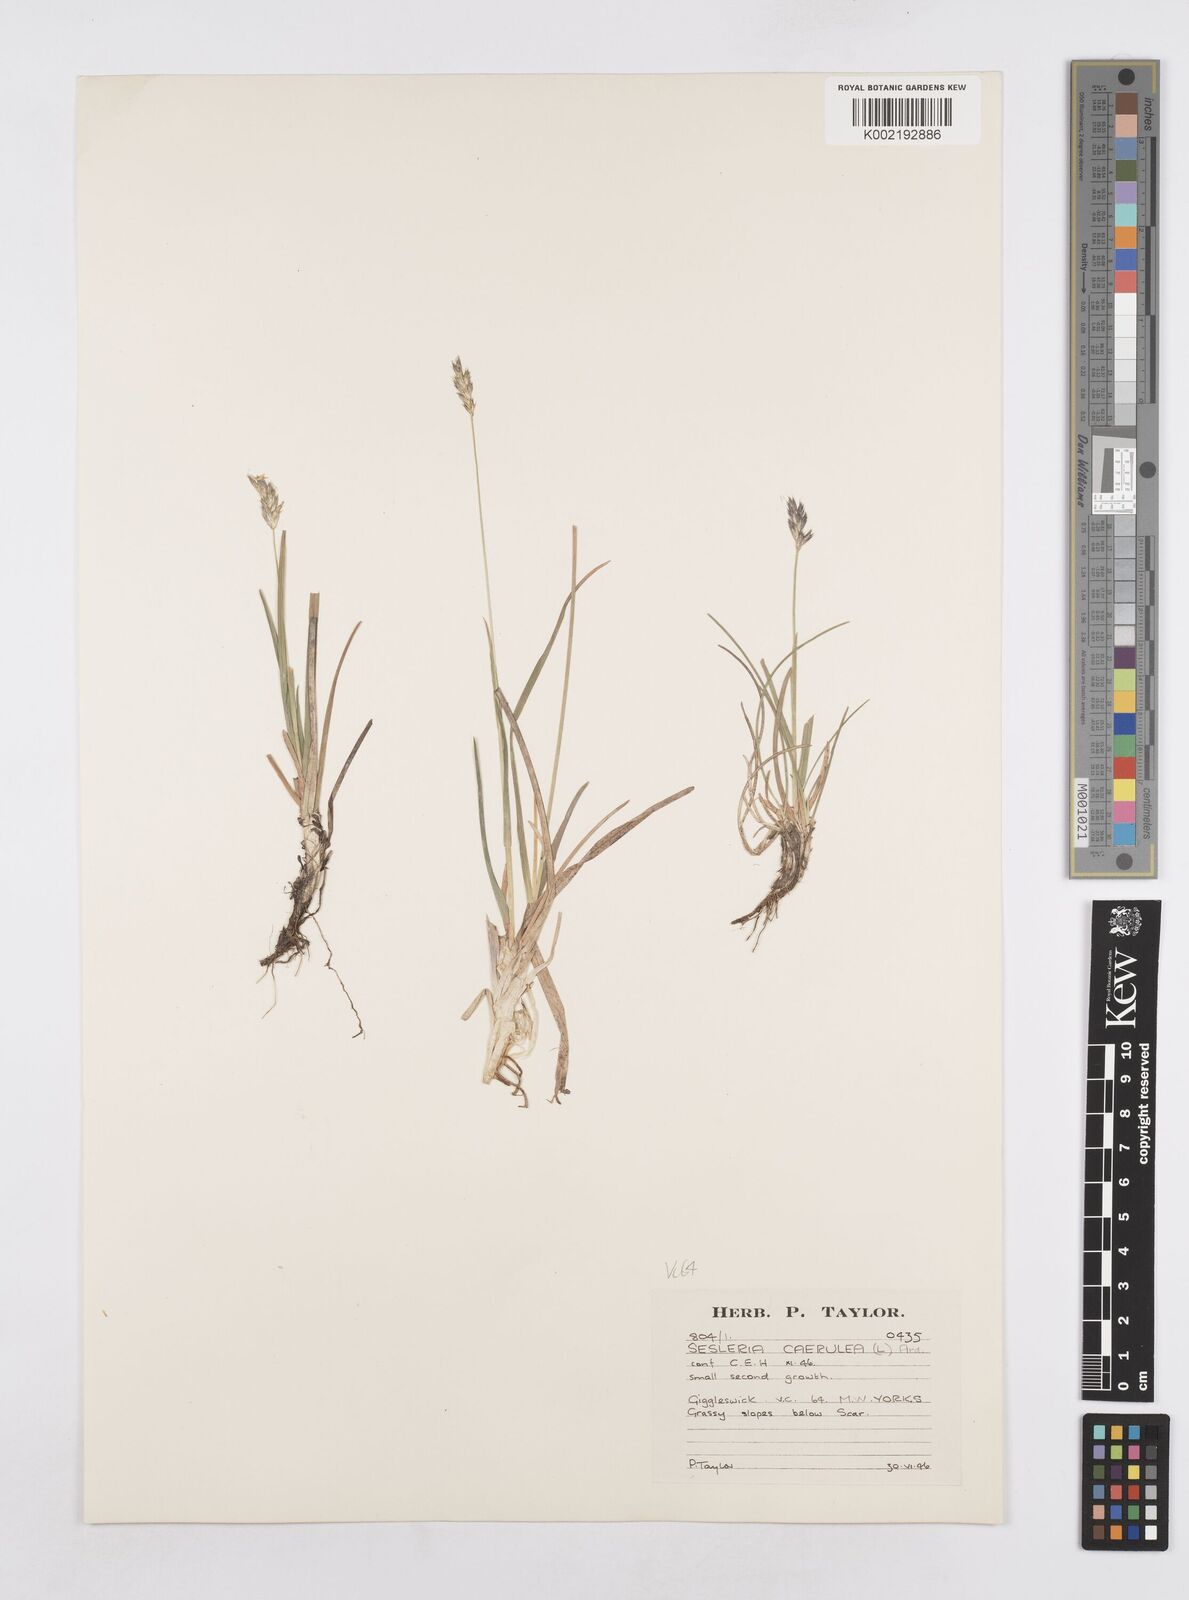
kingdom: Plantae
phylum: Tracheophyta
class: Liliopsida
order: Poales
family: Poaceae
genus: Sesleria
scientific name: Sesleria caerulea
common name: Blue moor-grass
